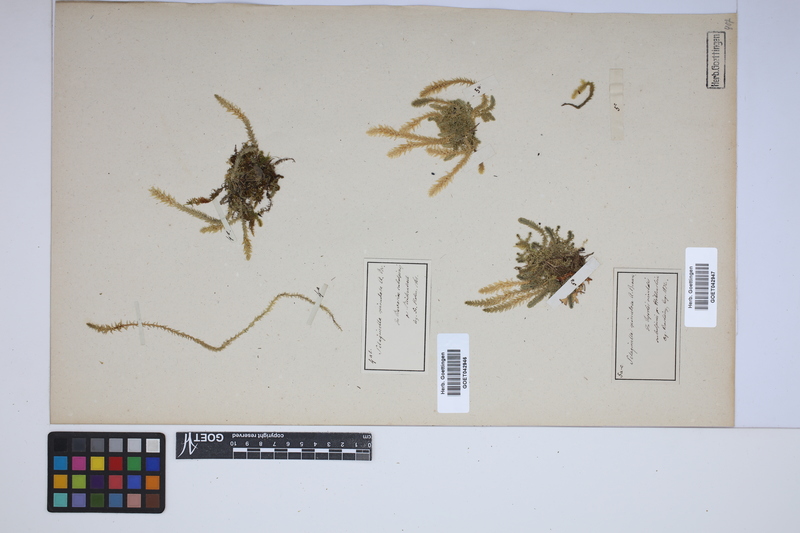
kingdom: Plantae
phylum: Tracheophyta
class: Lycopodiopsida
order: Selaginellales
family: Selaginellaceae
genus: Selaginella
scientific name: Selaginella selaginoides
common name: Prickly mountain-moss
